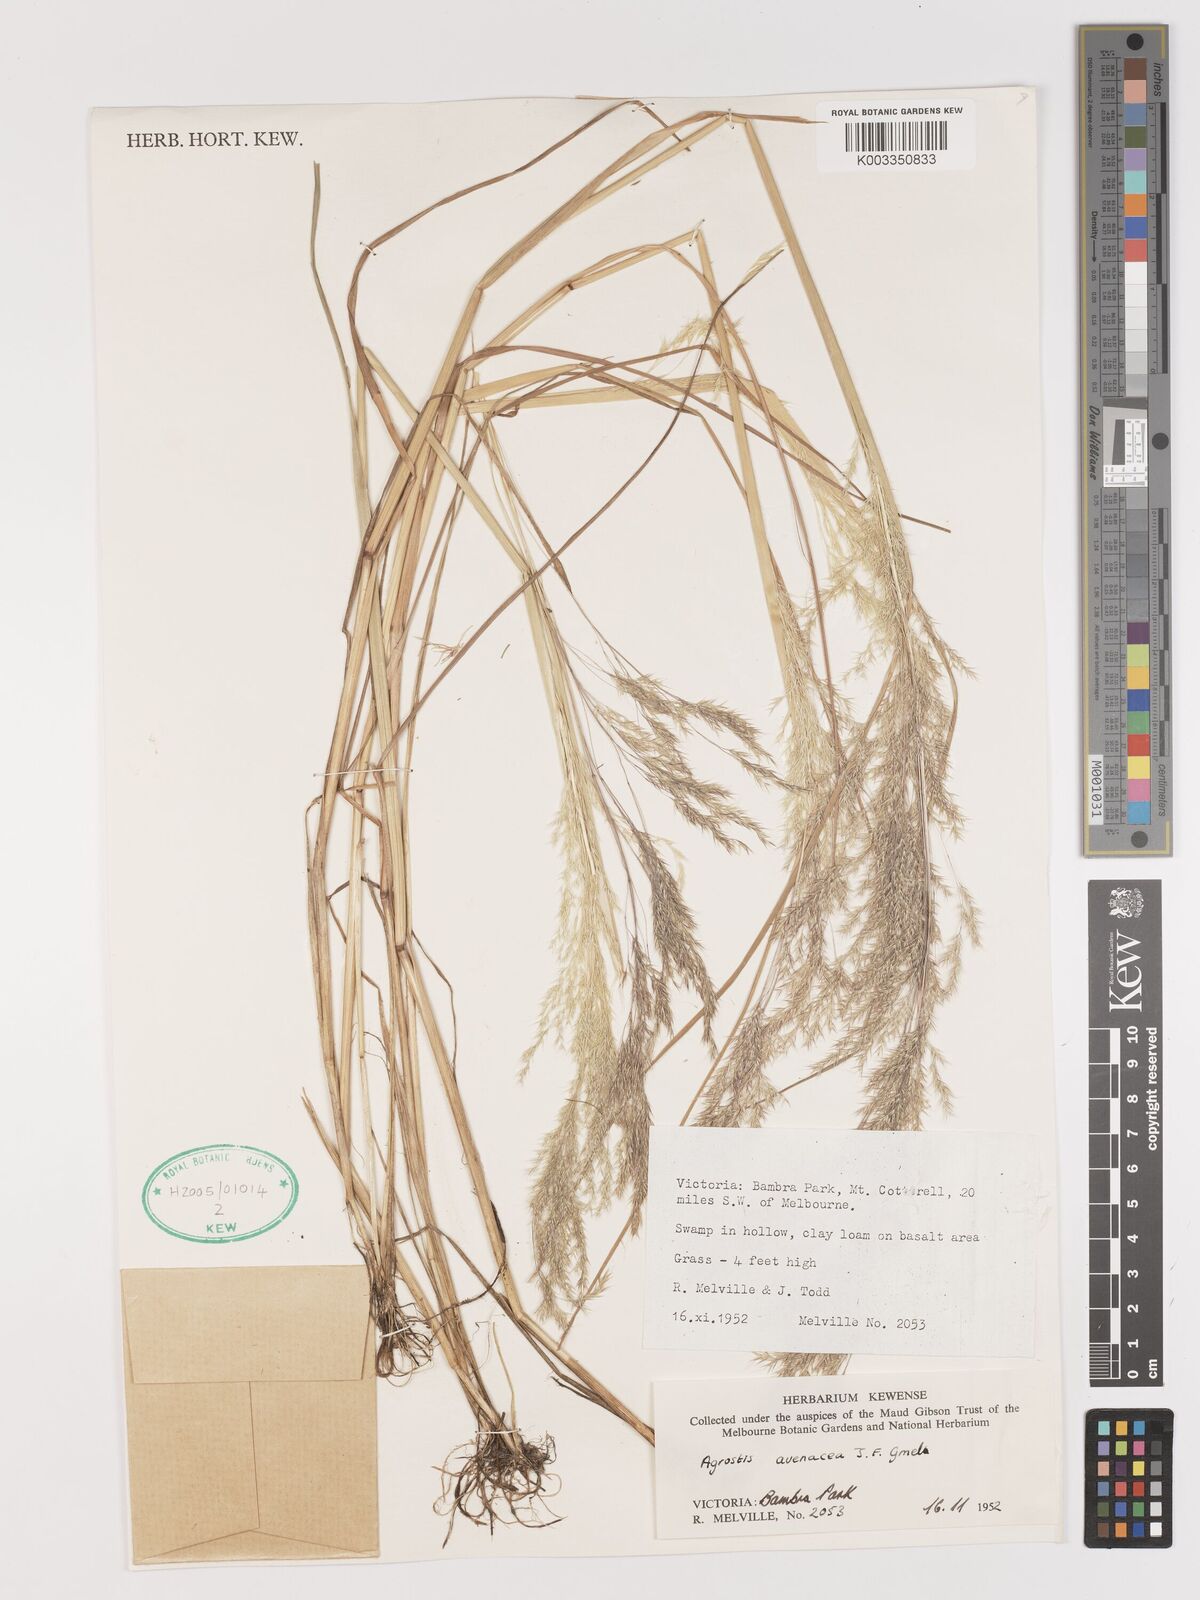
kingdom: Plantae
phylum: Tracheophyta
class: Liliopsida
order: Poales
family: Poaceae
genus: Lachnagrostis
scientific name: Lachnagrostis filiformis
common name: Bentgrass
